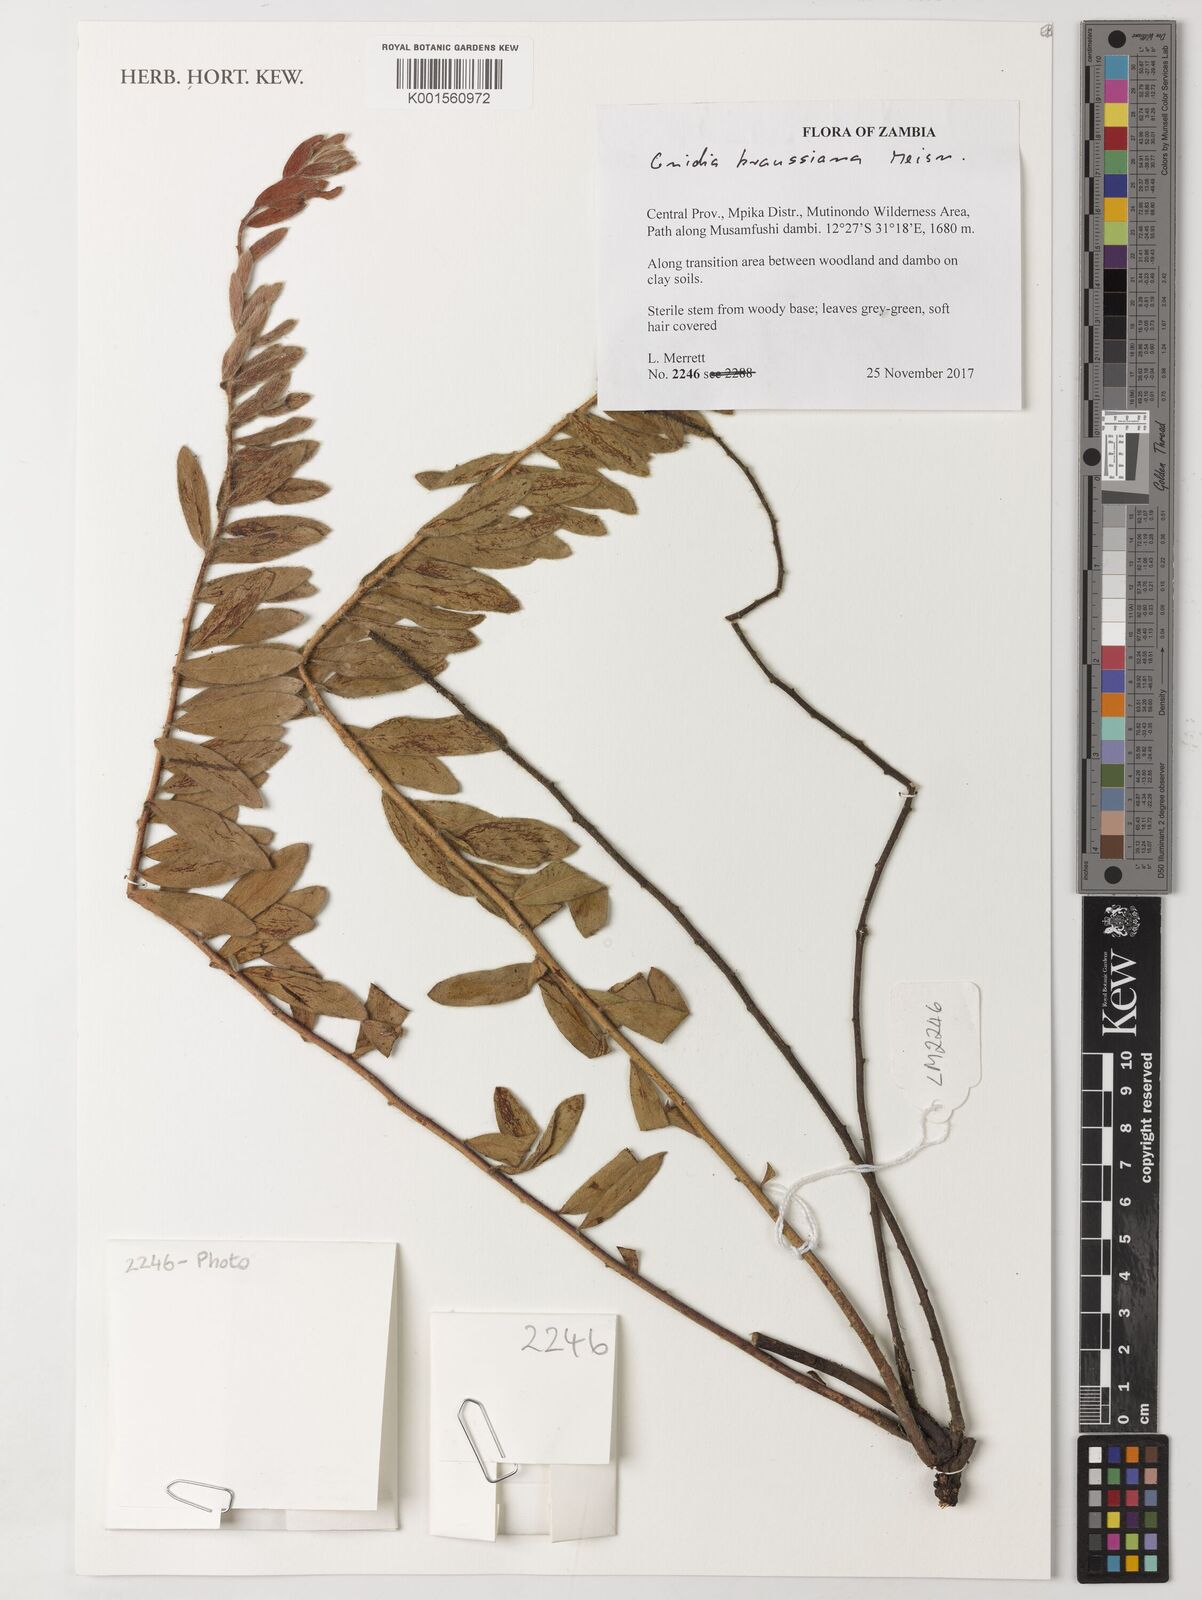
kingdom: Plantae
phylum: Tracheophyta
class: Magnoliopsida
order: Malvales
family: Thymelaeaceae
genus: Gnidia
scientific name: Gnidia kraussiana
